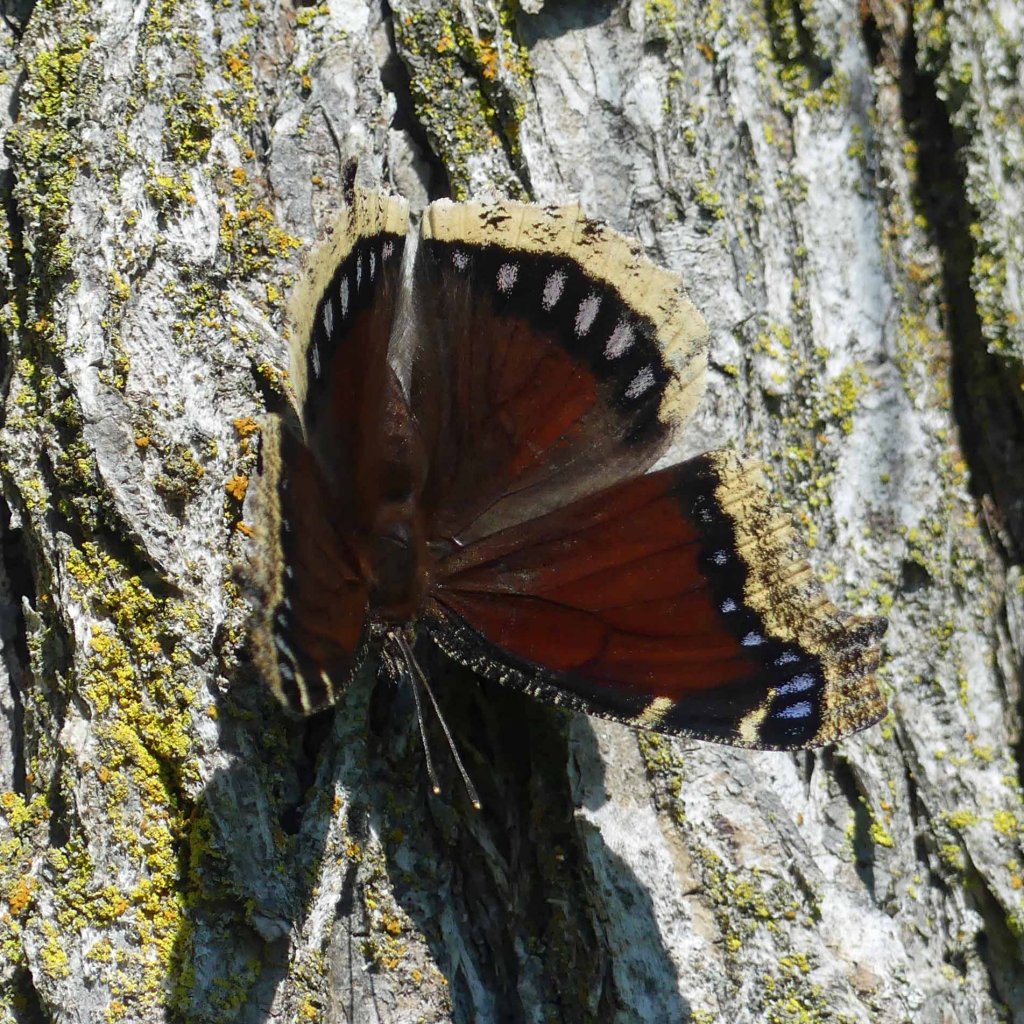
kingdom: Animalia
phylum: Arthropoda
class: Insecta
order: Lepidoptera
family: Nymphalidae
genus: Nymphalis
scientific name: Nymphalis antiopa
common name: Mourning Cloak
